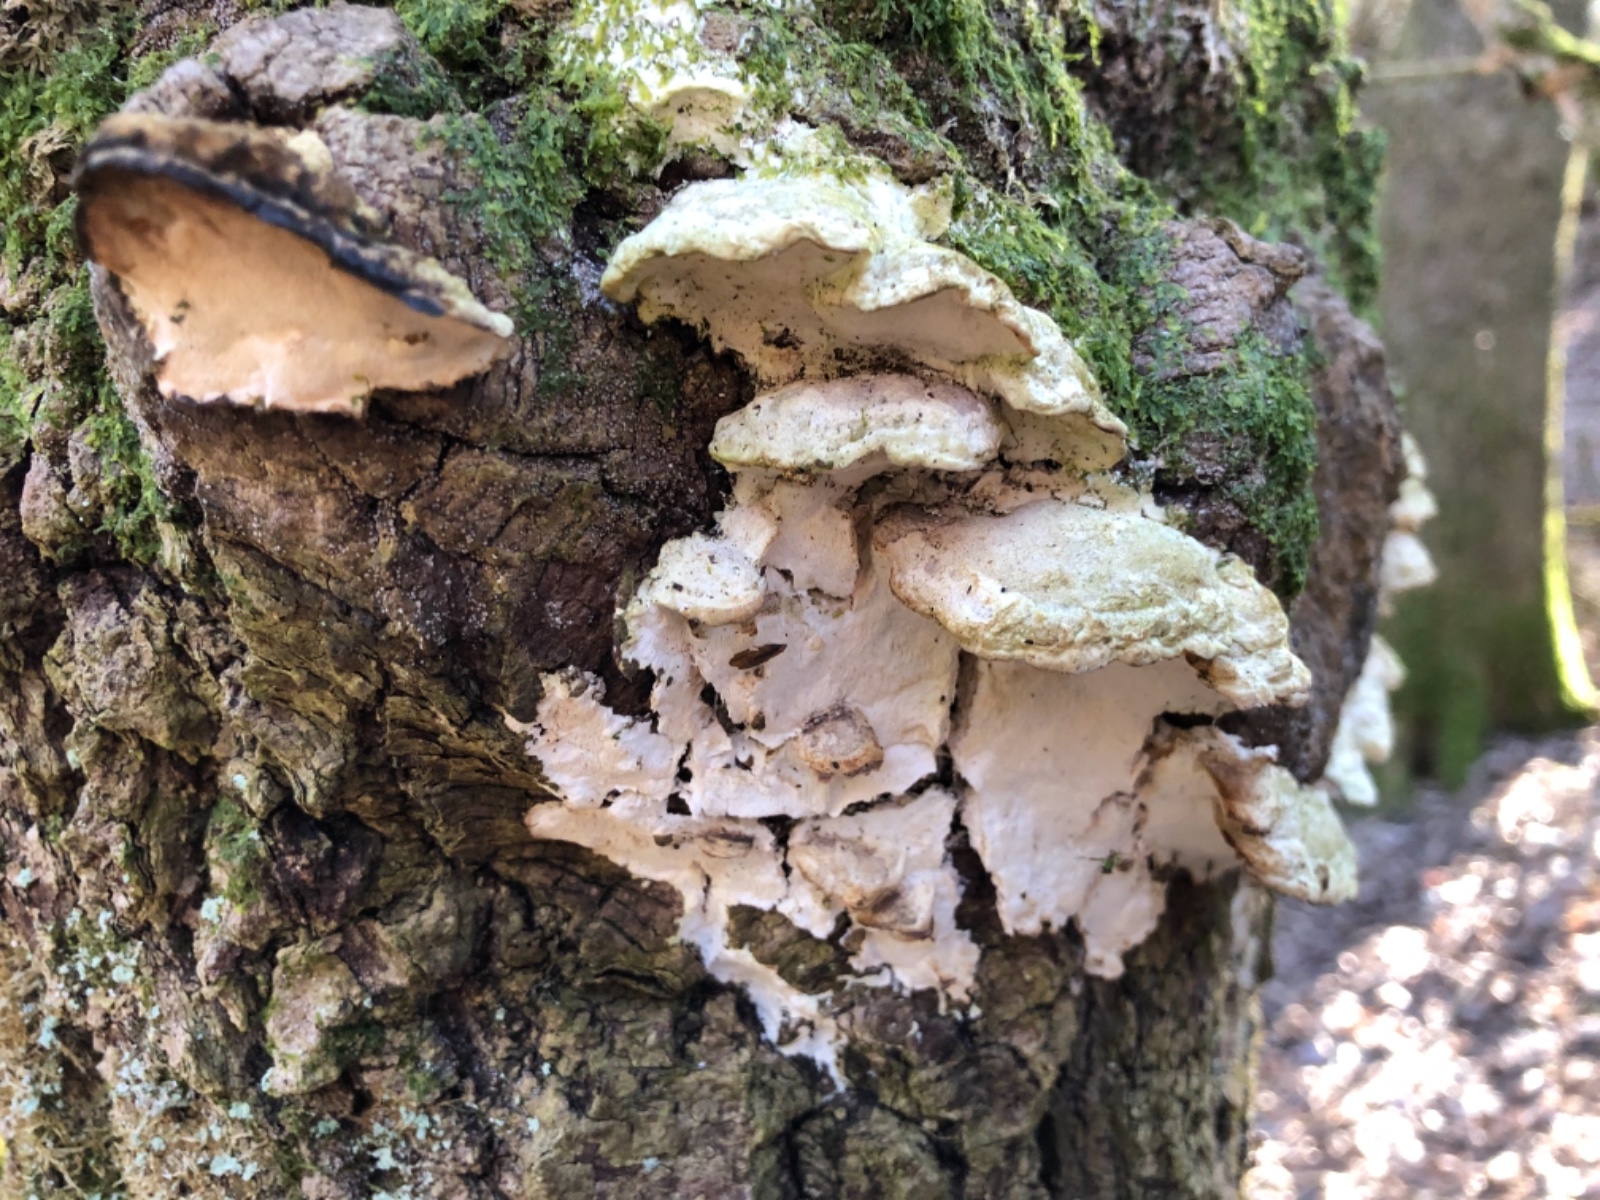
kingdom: Fungi
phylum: Basidiomycota
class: Agaricomycetes
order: Hymenochaetales
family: Oxyporaceae
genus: Oxyporus
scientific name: Oxyporus populinus
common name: sammenvokset trylleporesvamp
